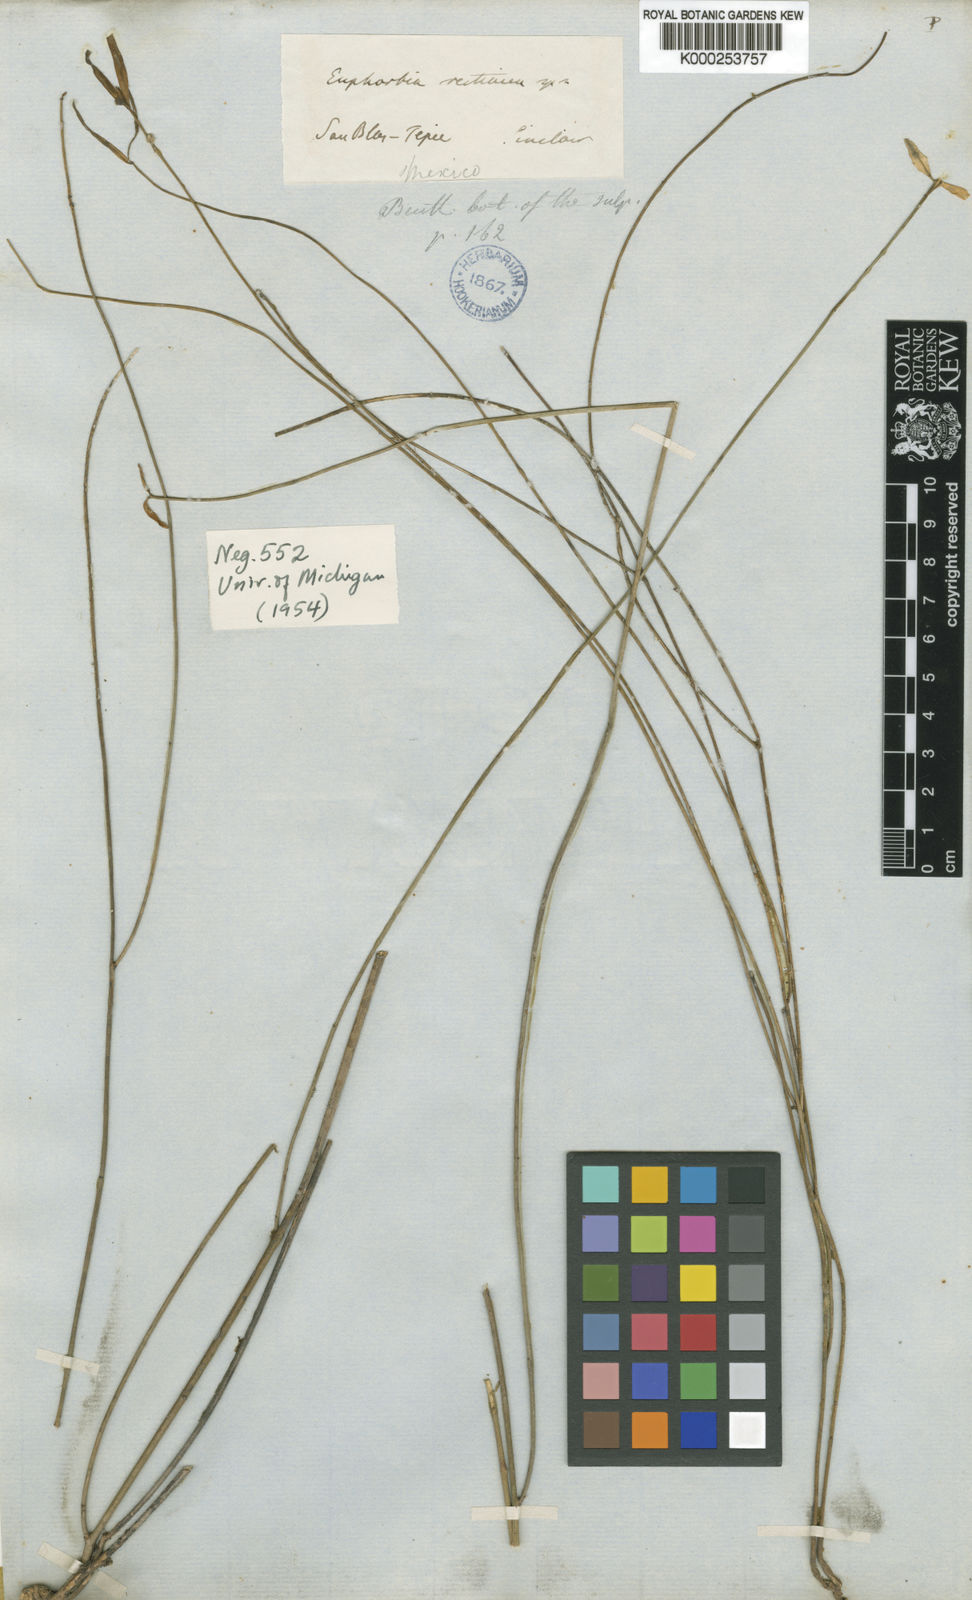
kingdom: Plantae
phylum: Tracheophyta
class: Magnoliopsida
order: Malpighiales
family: Euphorbiaceae
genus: Euphorbia
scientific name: Euphorbia restiacea
